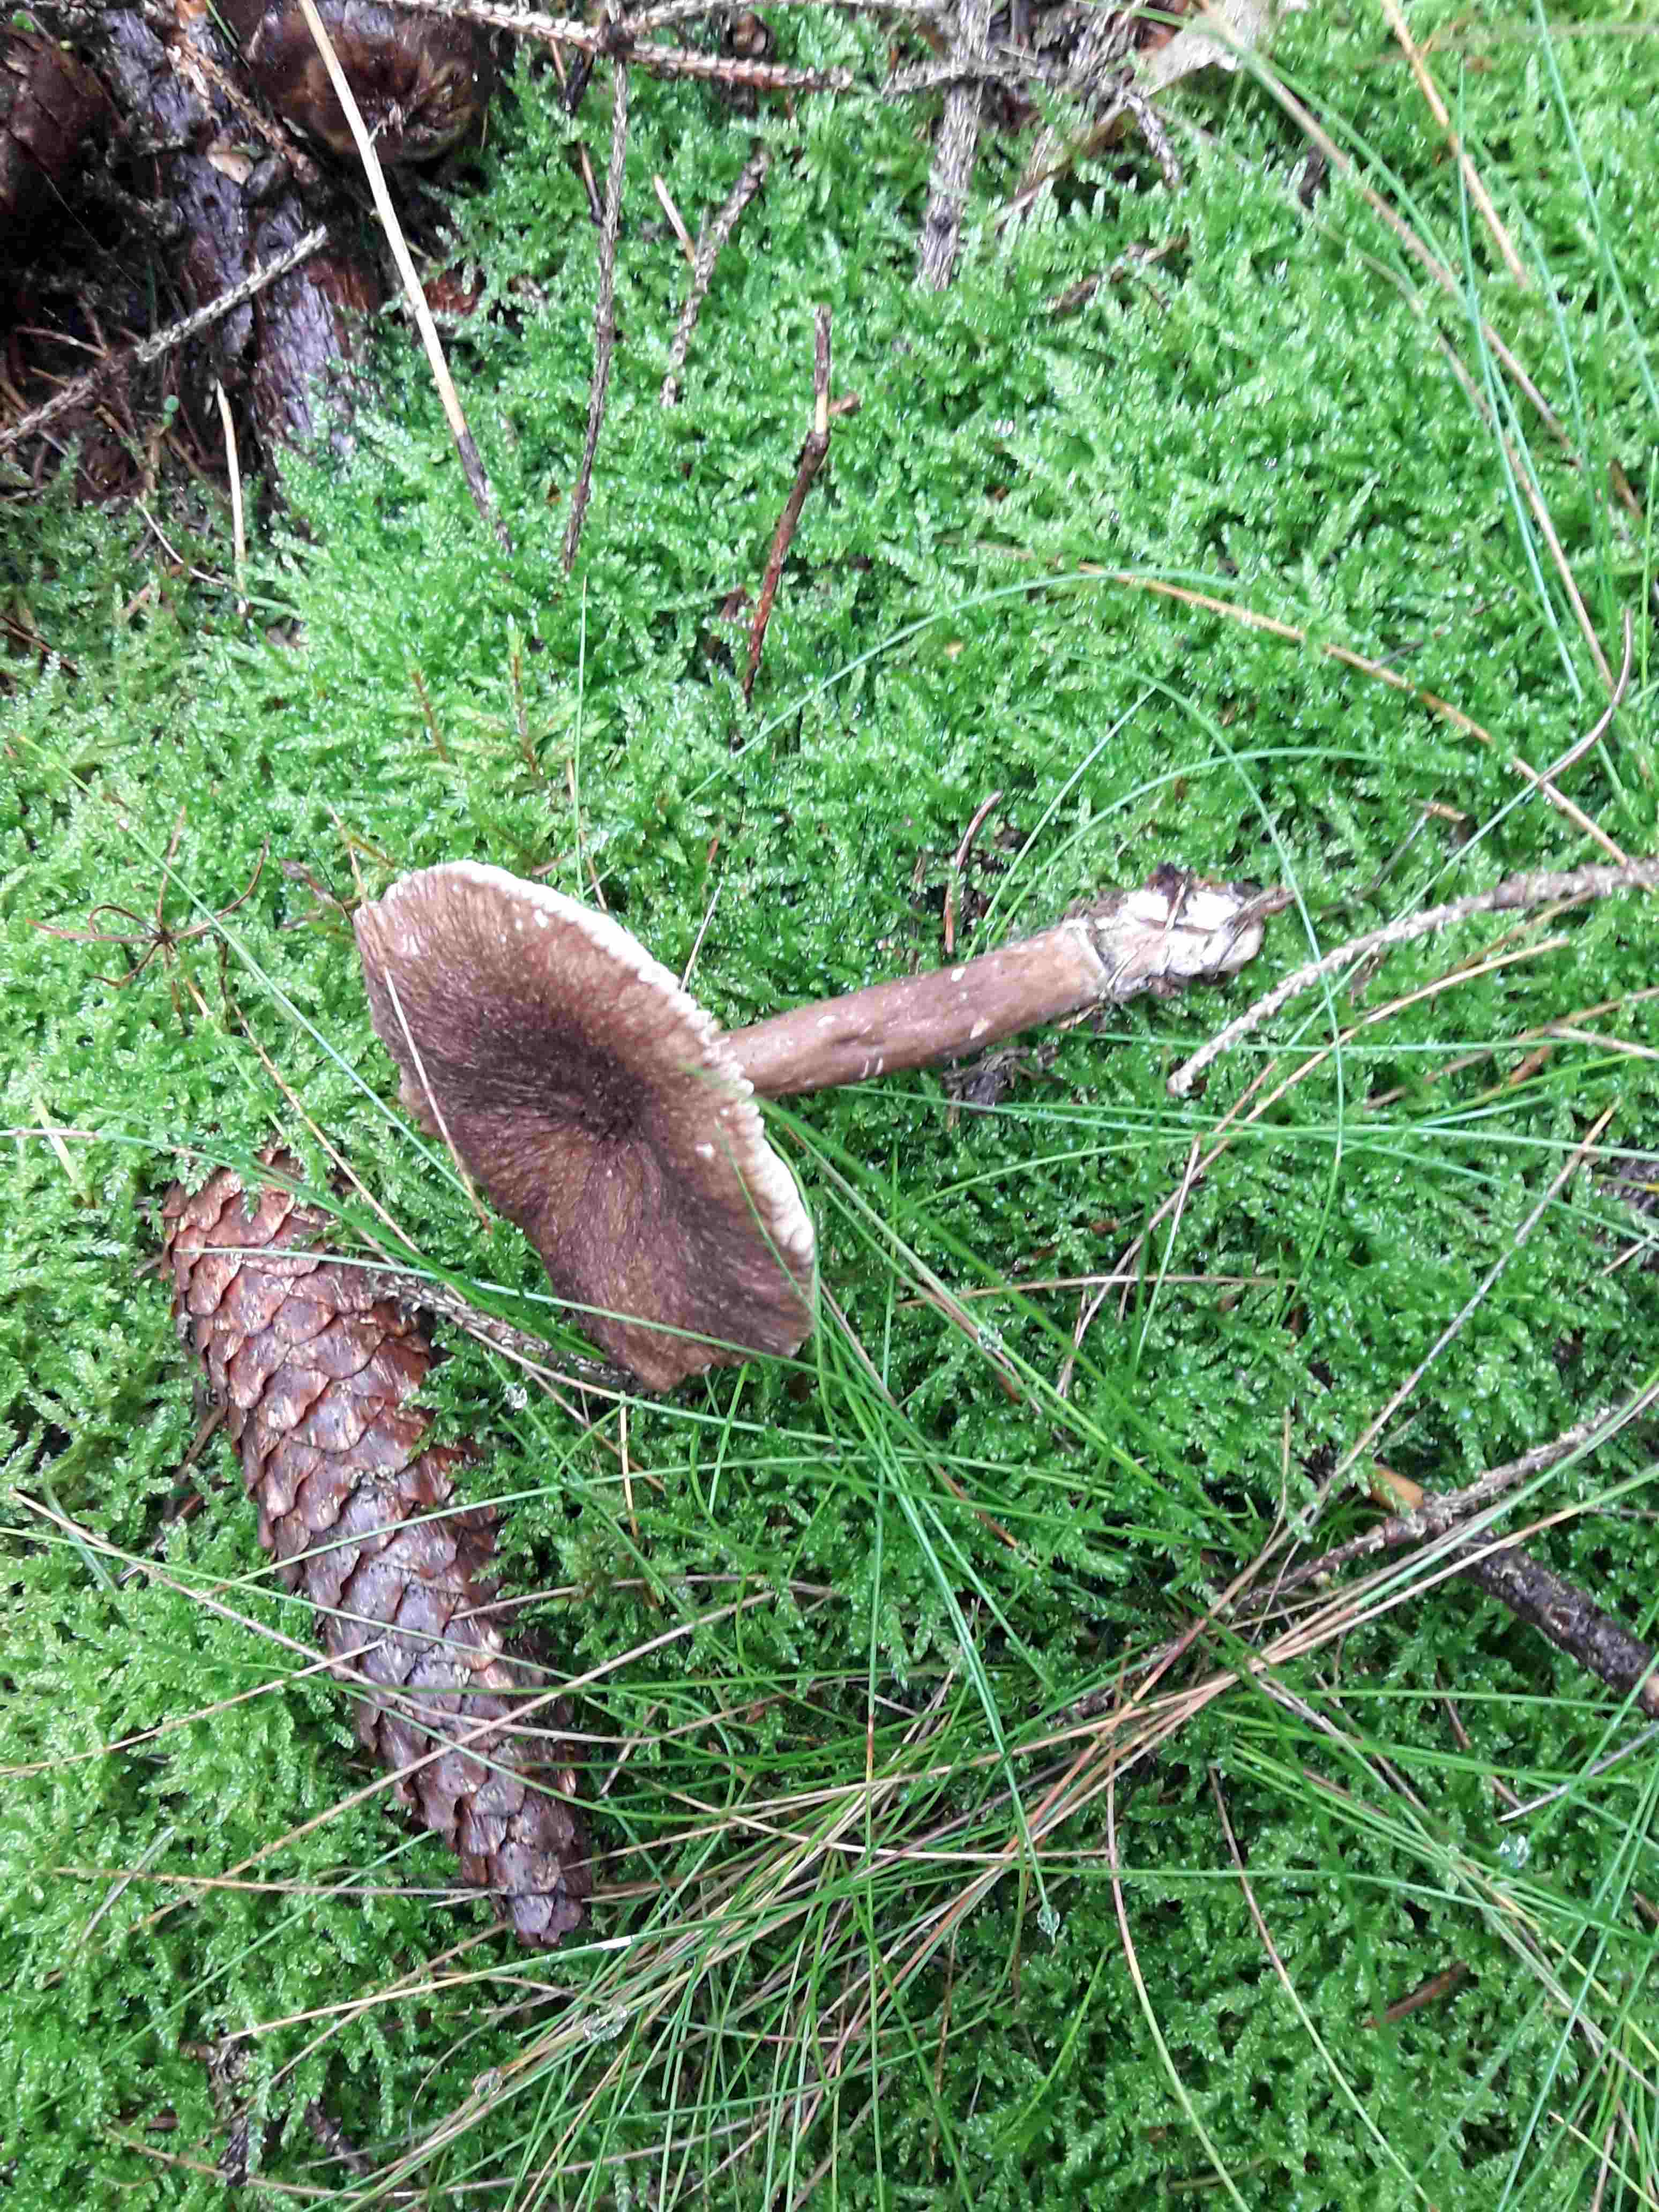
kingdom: Fungi
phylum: Basidiomycota
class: Agaricomycetes
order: Russulales
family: Russulaceae
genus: Lactarius
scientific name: Lactarius lignyotus
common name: fløjls-mælkehat
